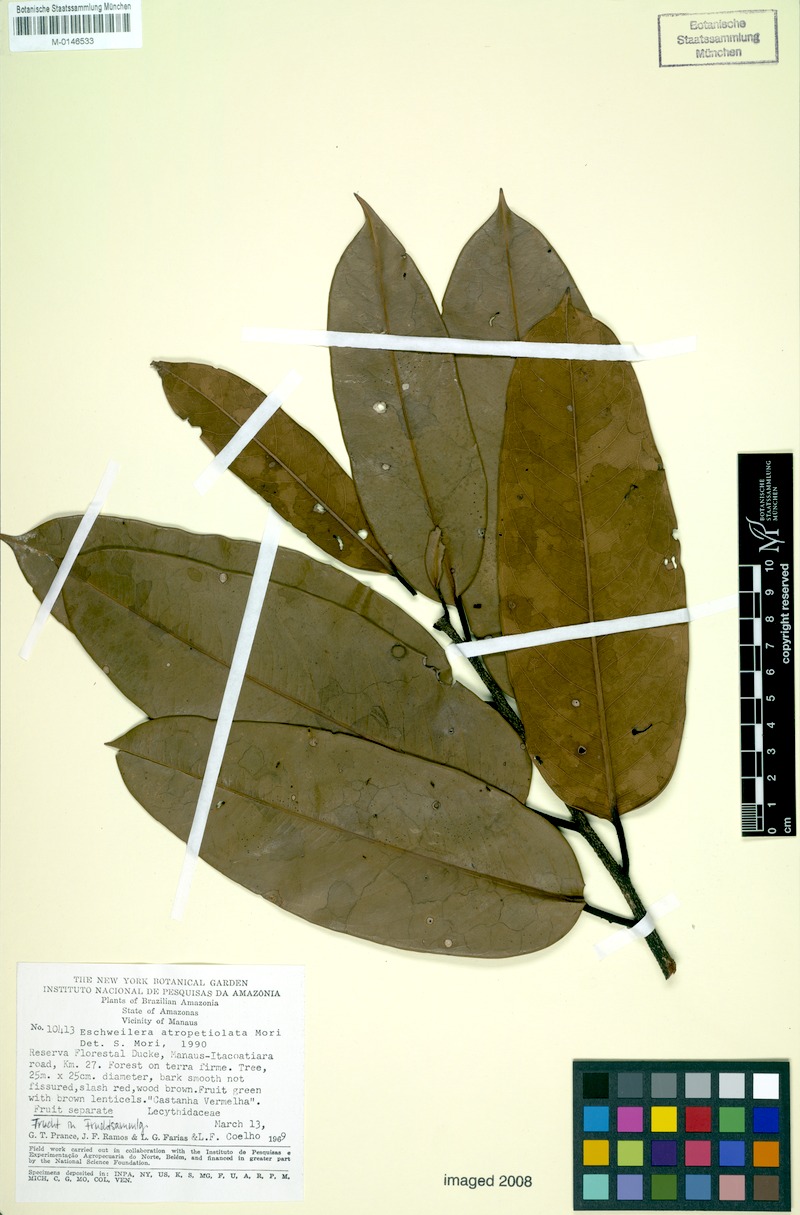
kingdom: Plantae
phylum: Tracheophyta
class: Magnoliopsida
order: Ericales
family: Lecythidaceae
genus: Eschweilera
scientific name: Eschweilera atropetiolata
